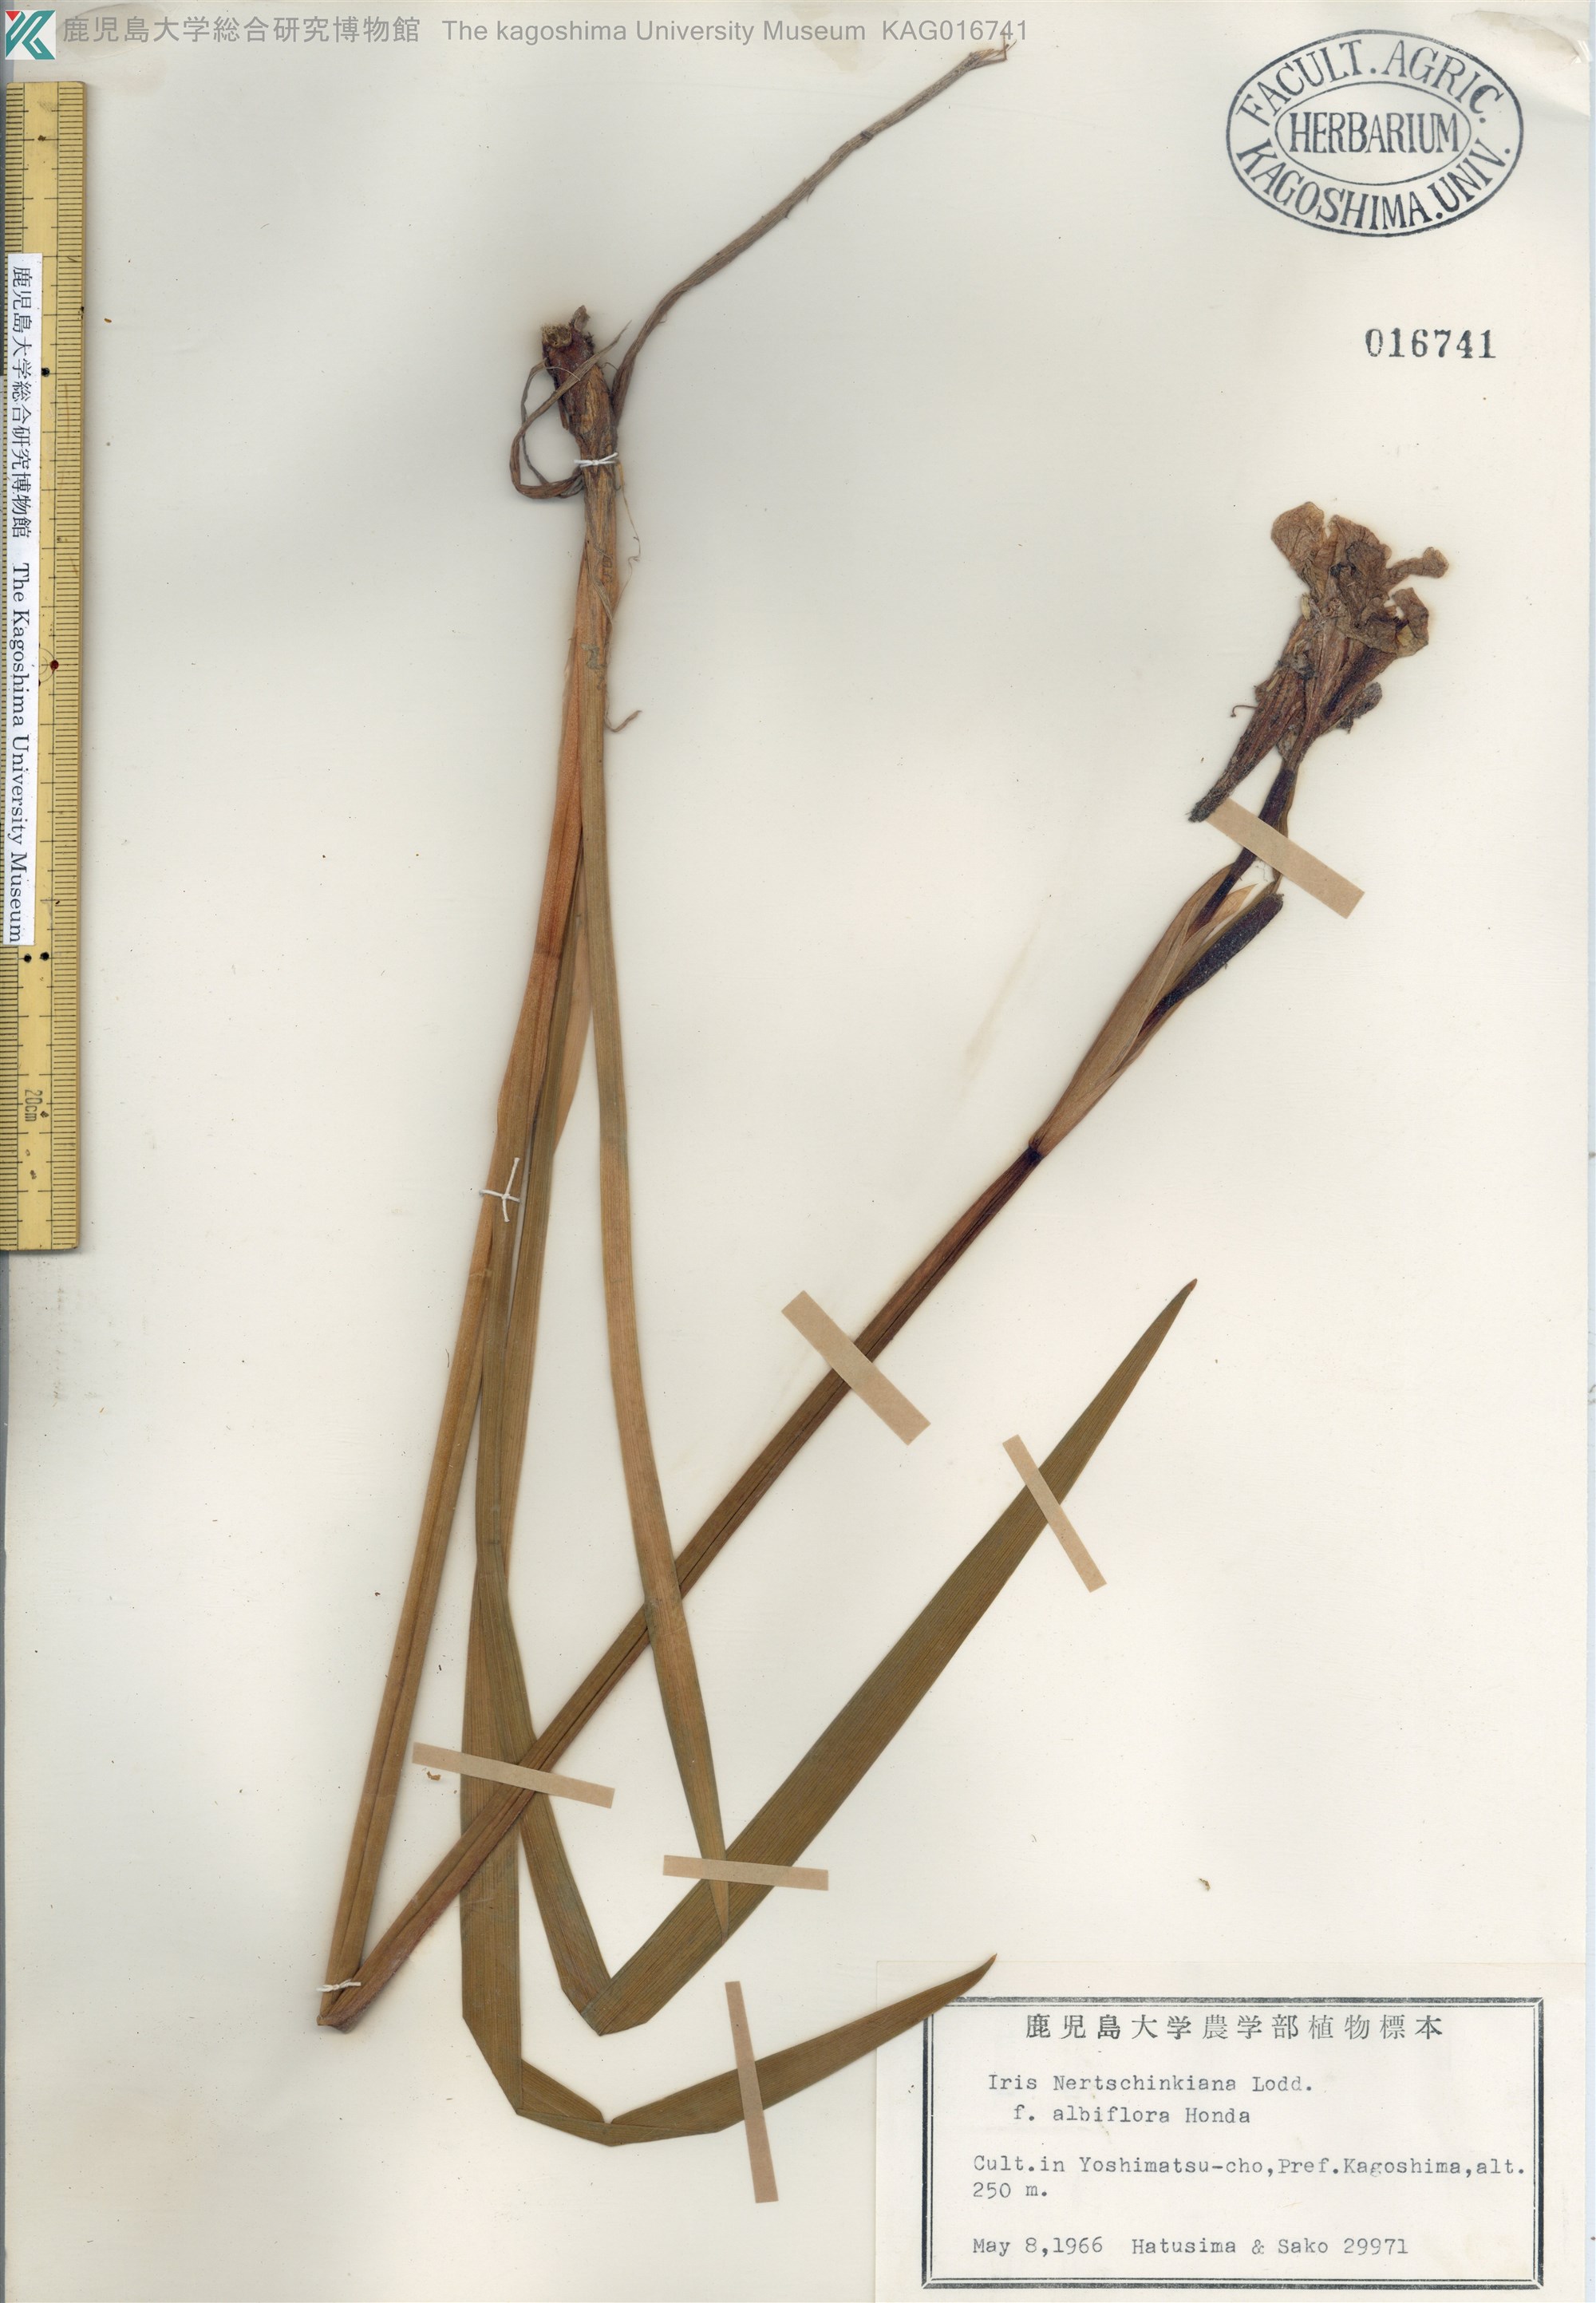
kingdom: Plantae
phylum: Tracheophyta
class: Liliopsida
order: Asparagales
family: Iridaceae
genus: Iris
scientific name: Iris sanguinea
